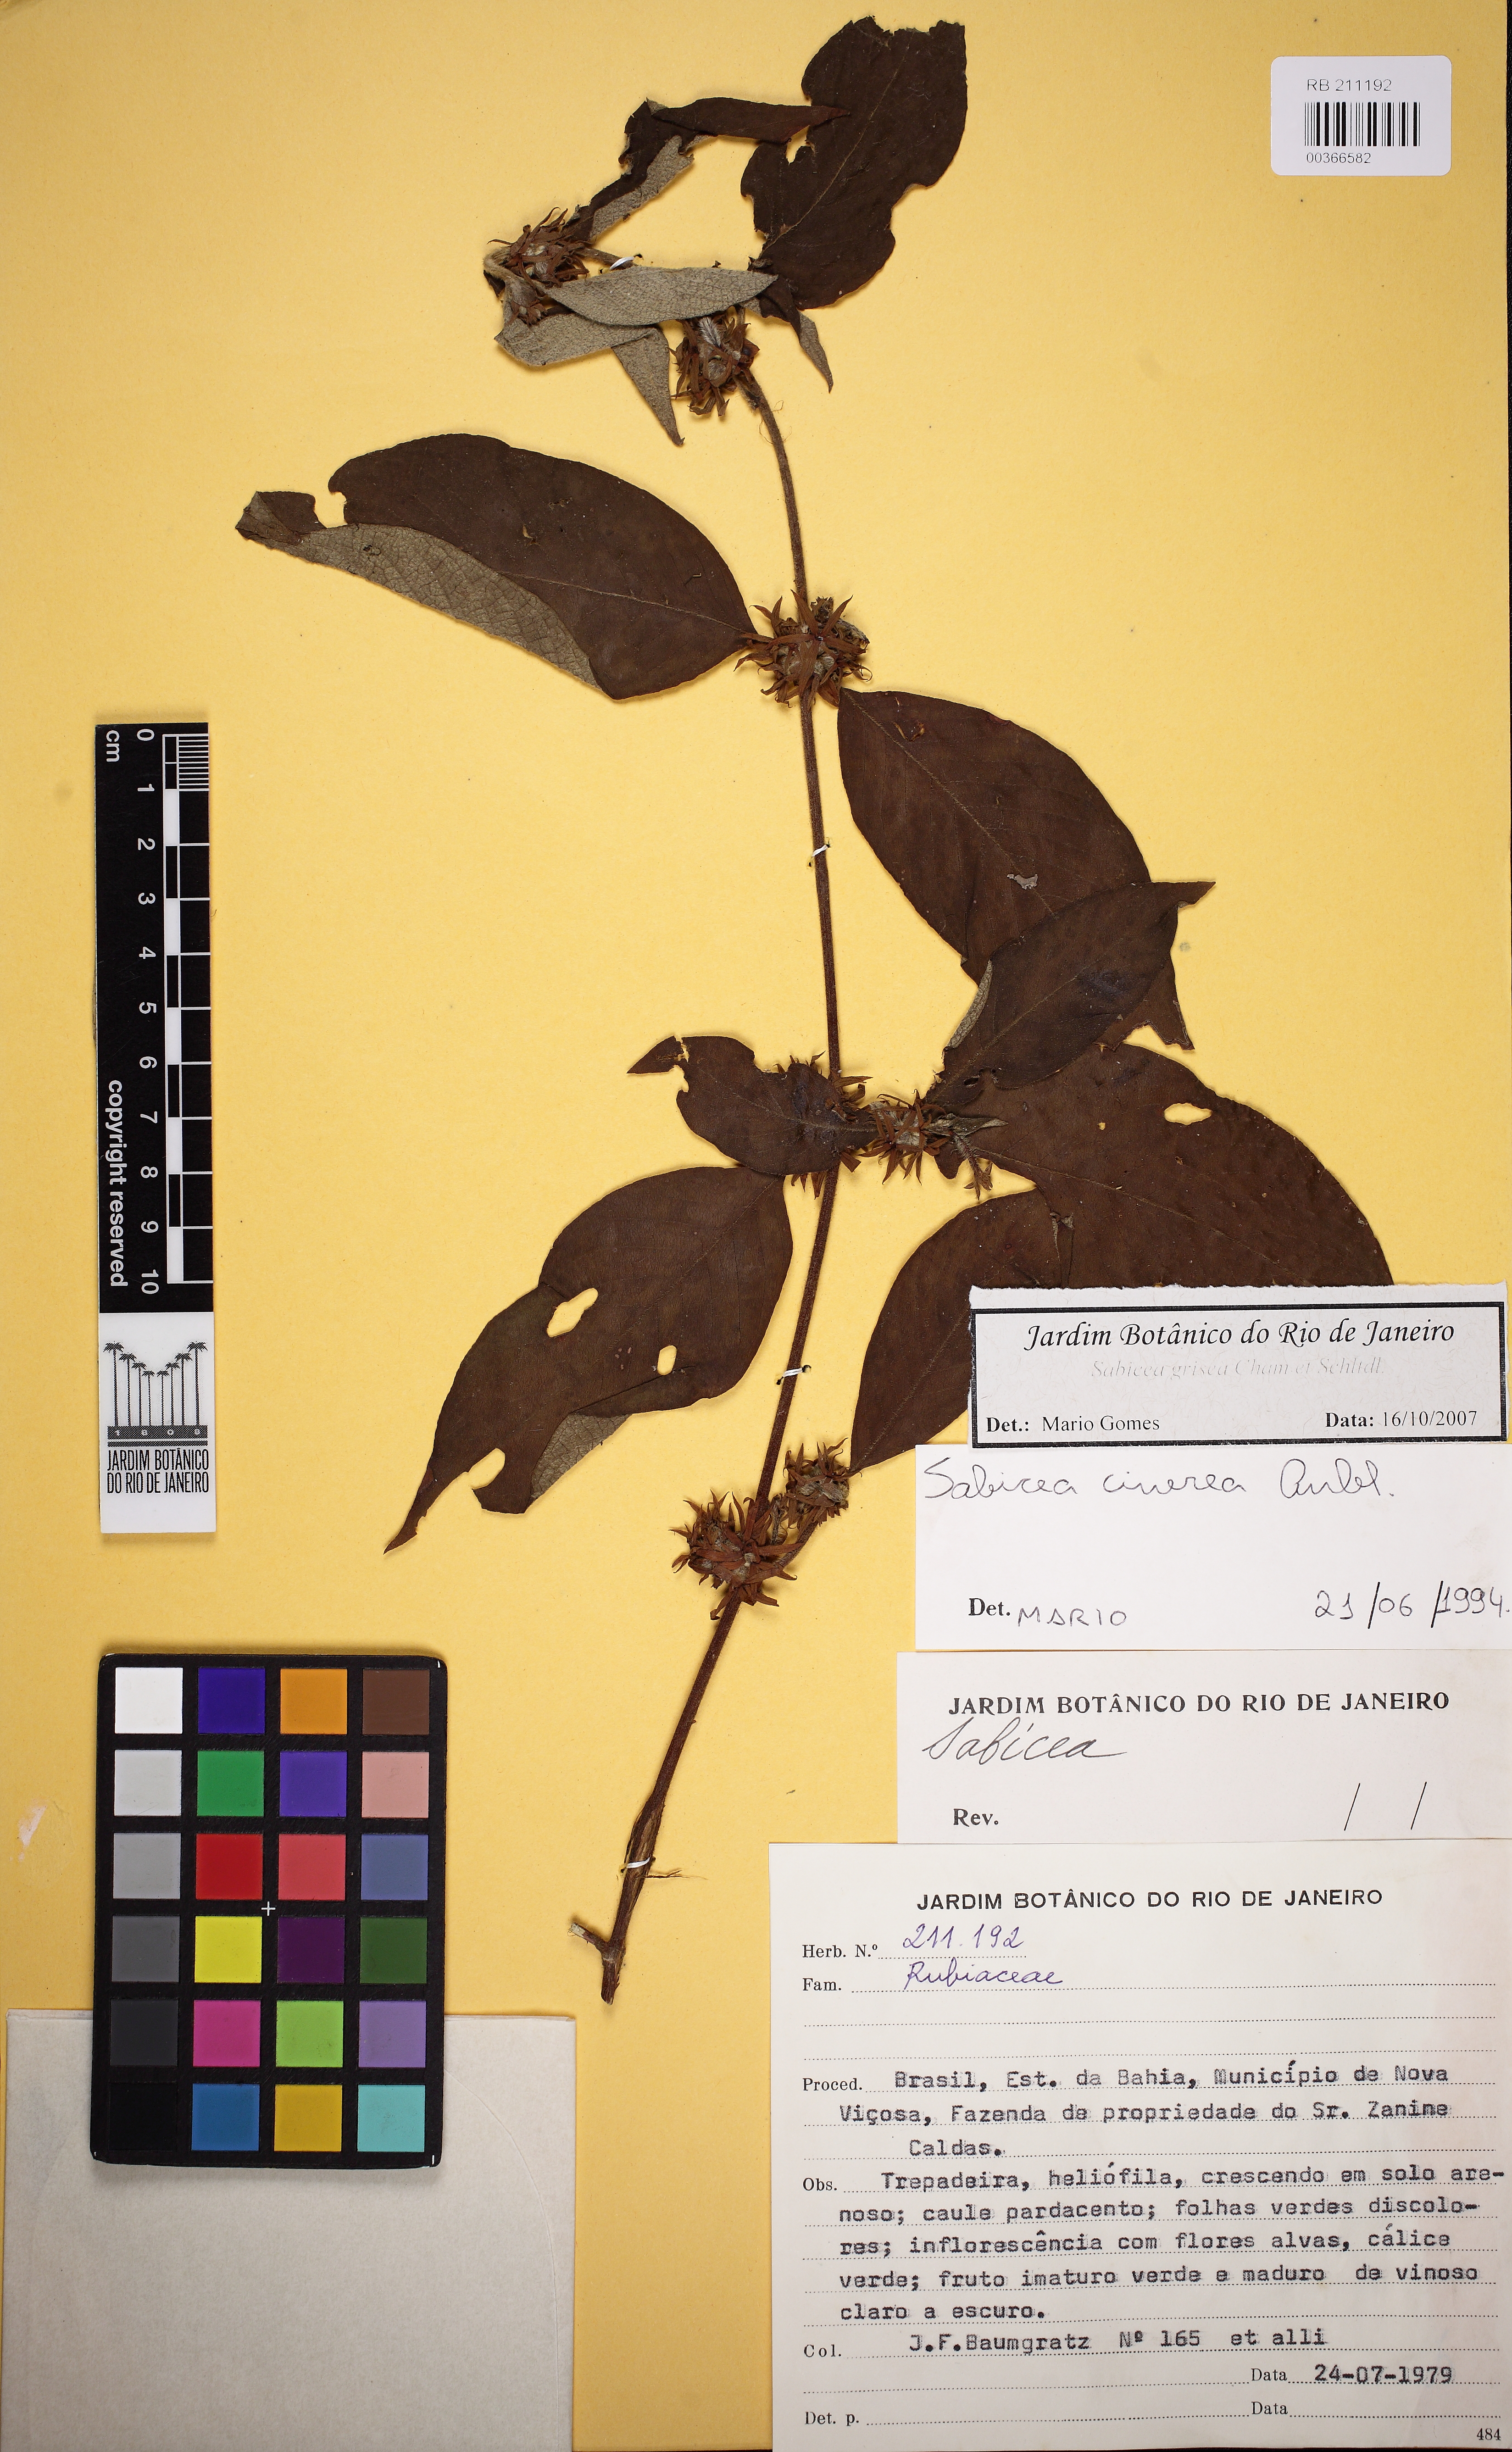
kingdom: Plantae
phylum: Tracheophyta
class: Magnoliopsida
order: Gentianales
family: Rubiaceae
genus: Sabicea
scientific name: Sabicea grisea
